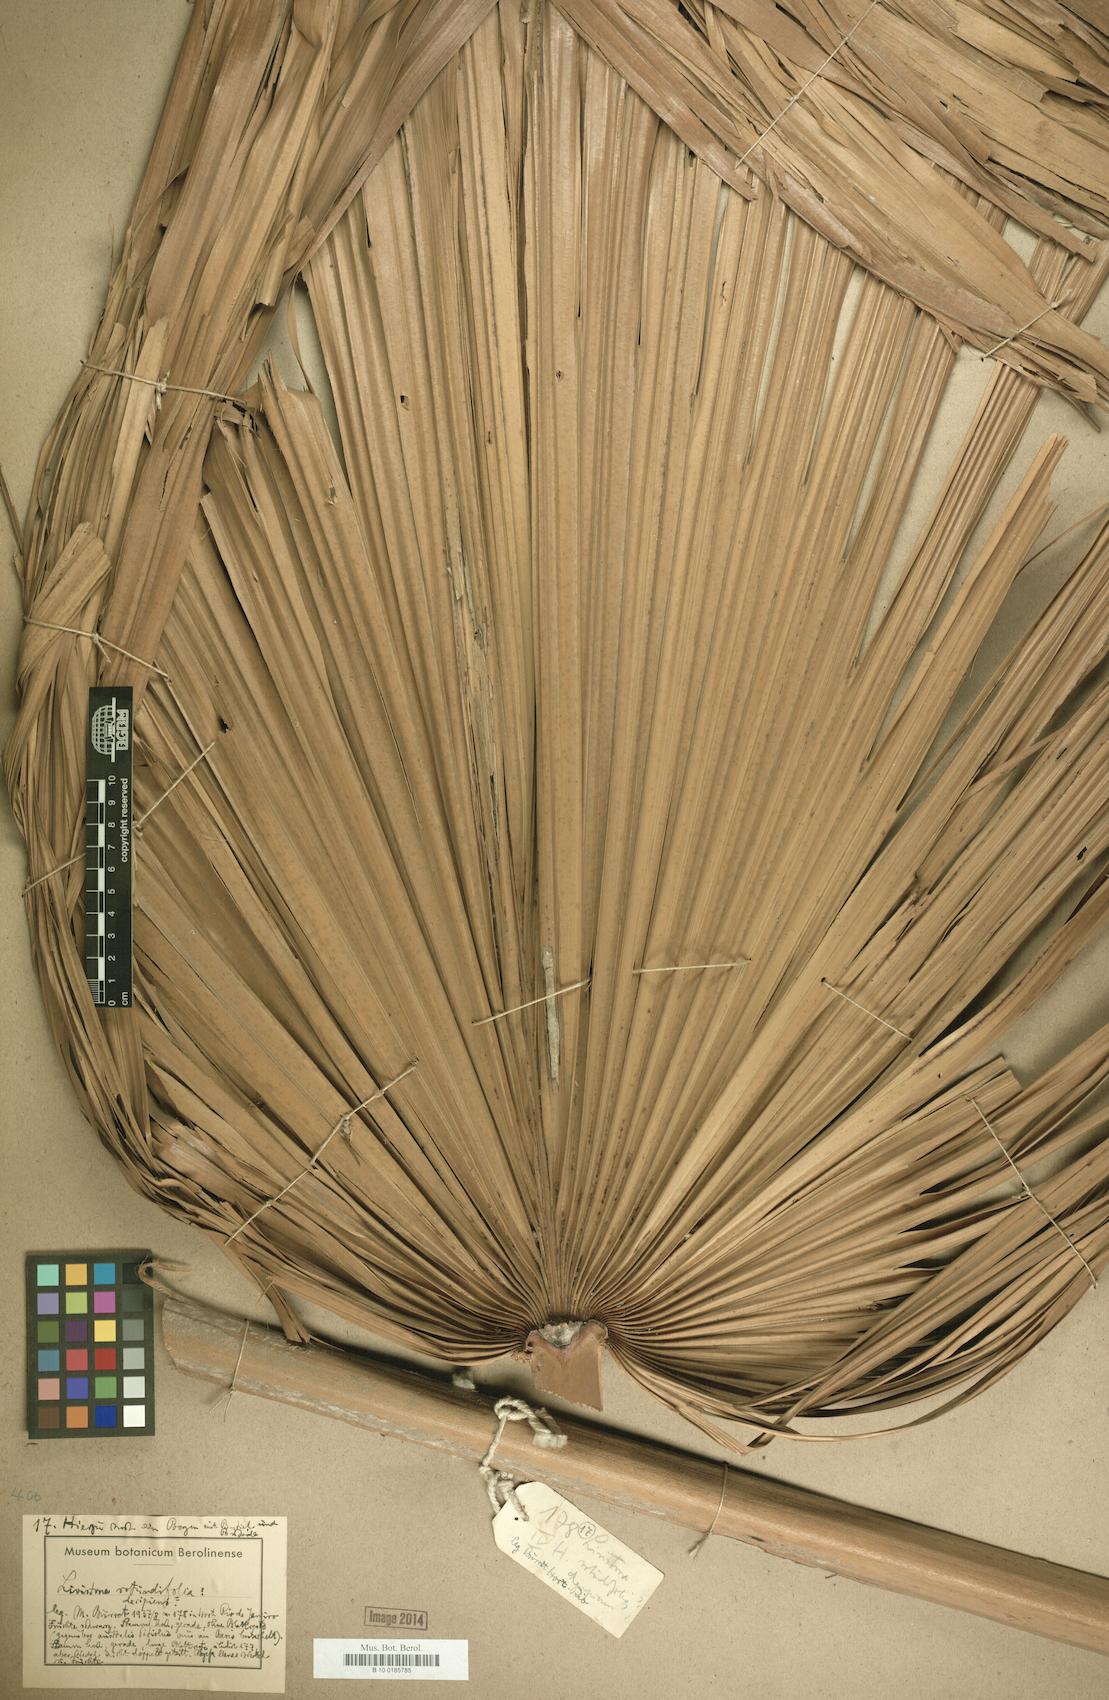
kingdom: Plantae
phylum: Tracheophyta
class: Liliopsida
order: Arecales
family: Arecaceae
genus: Saribus
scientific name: Saribus rotundifolius
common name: Palm
